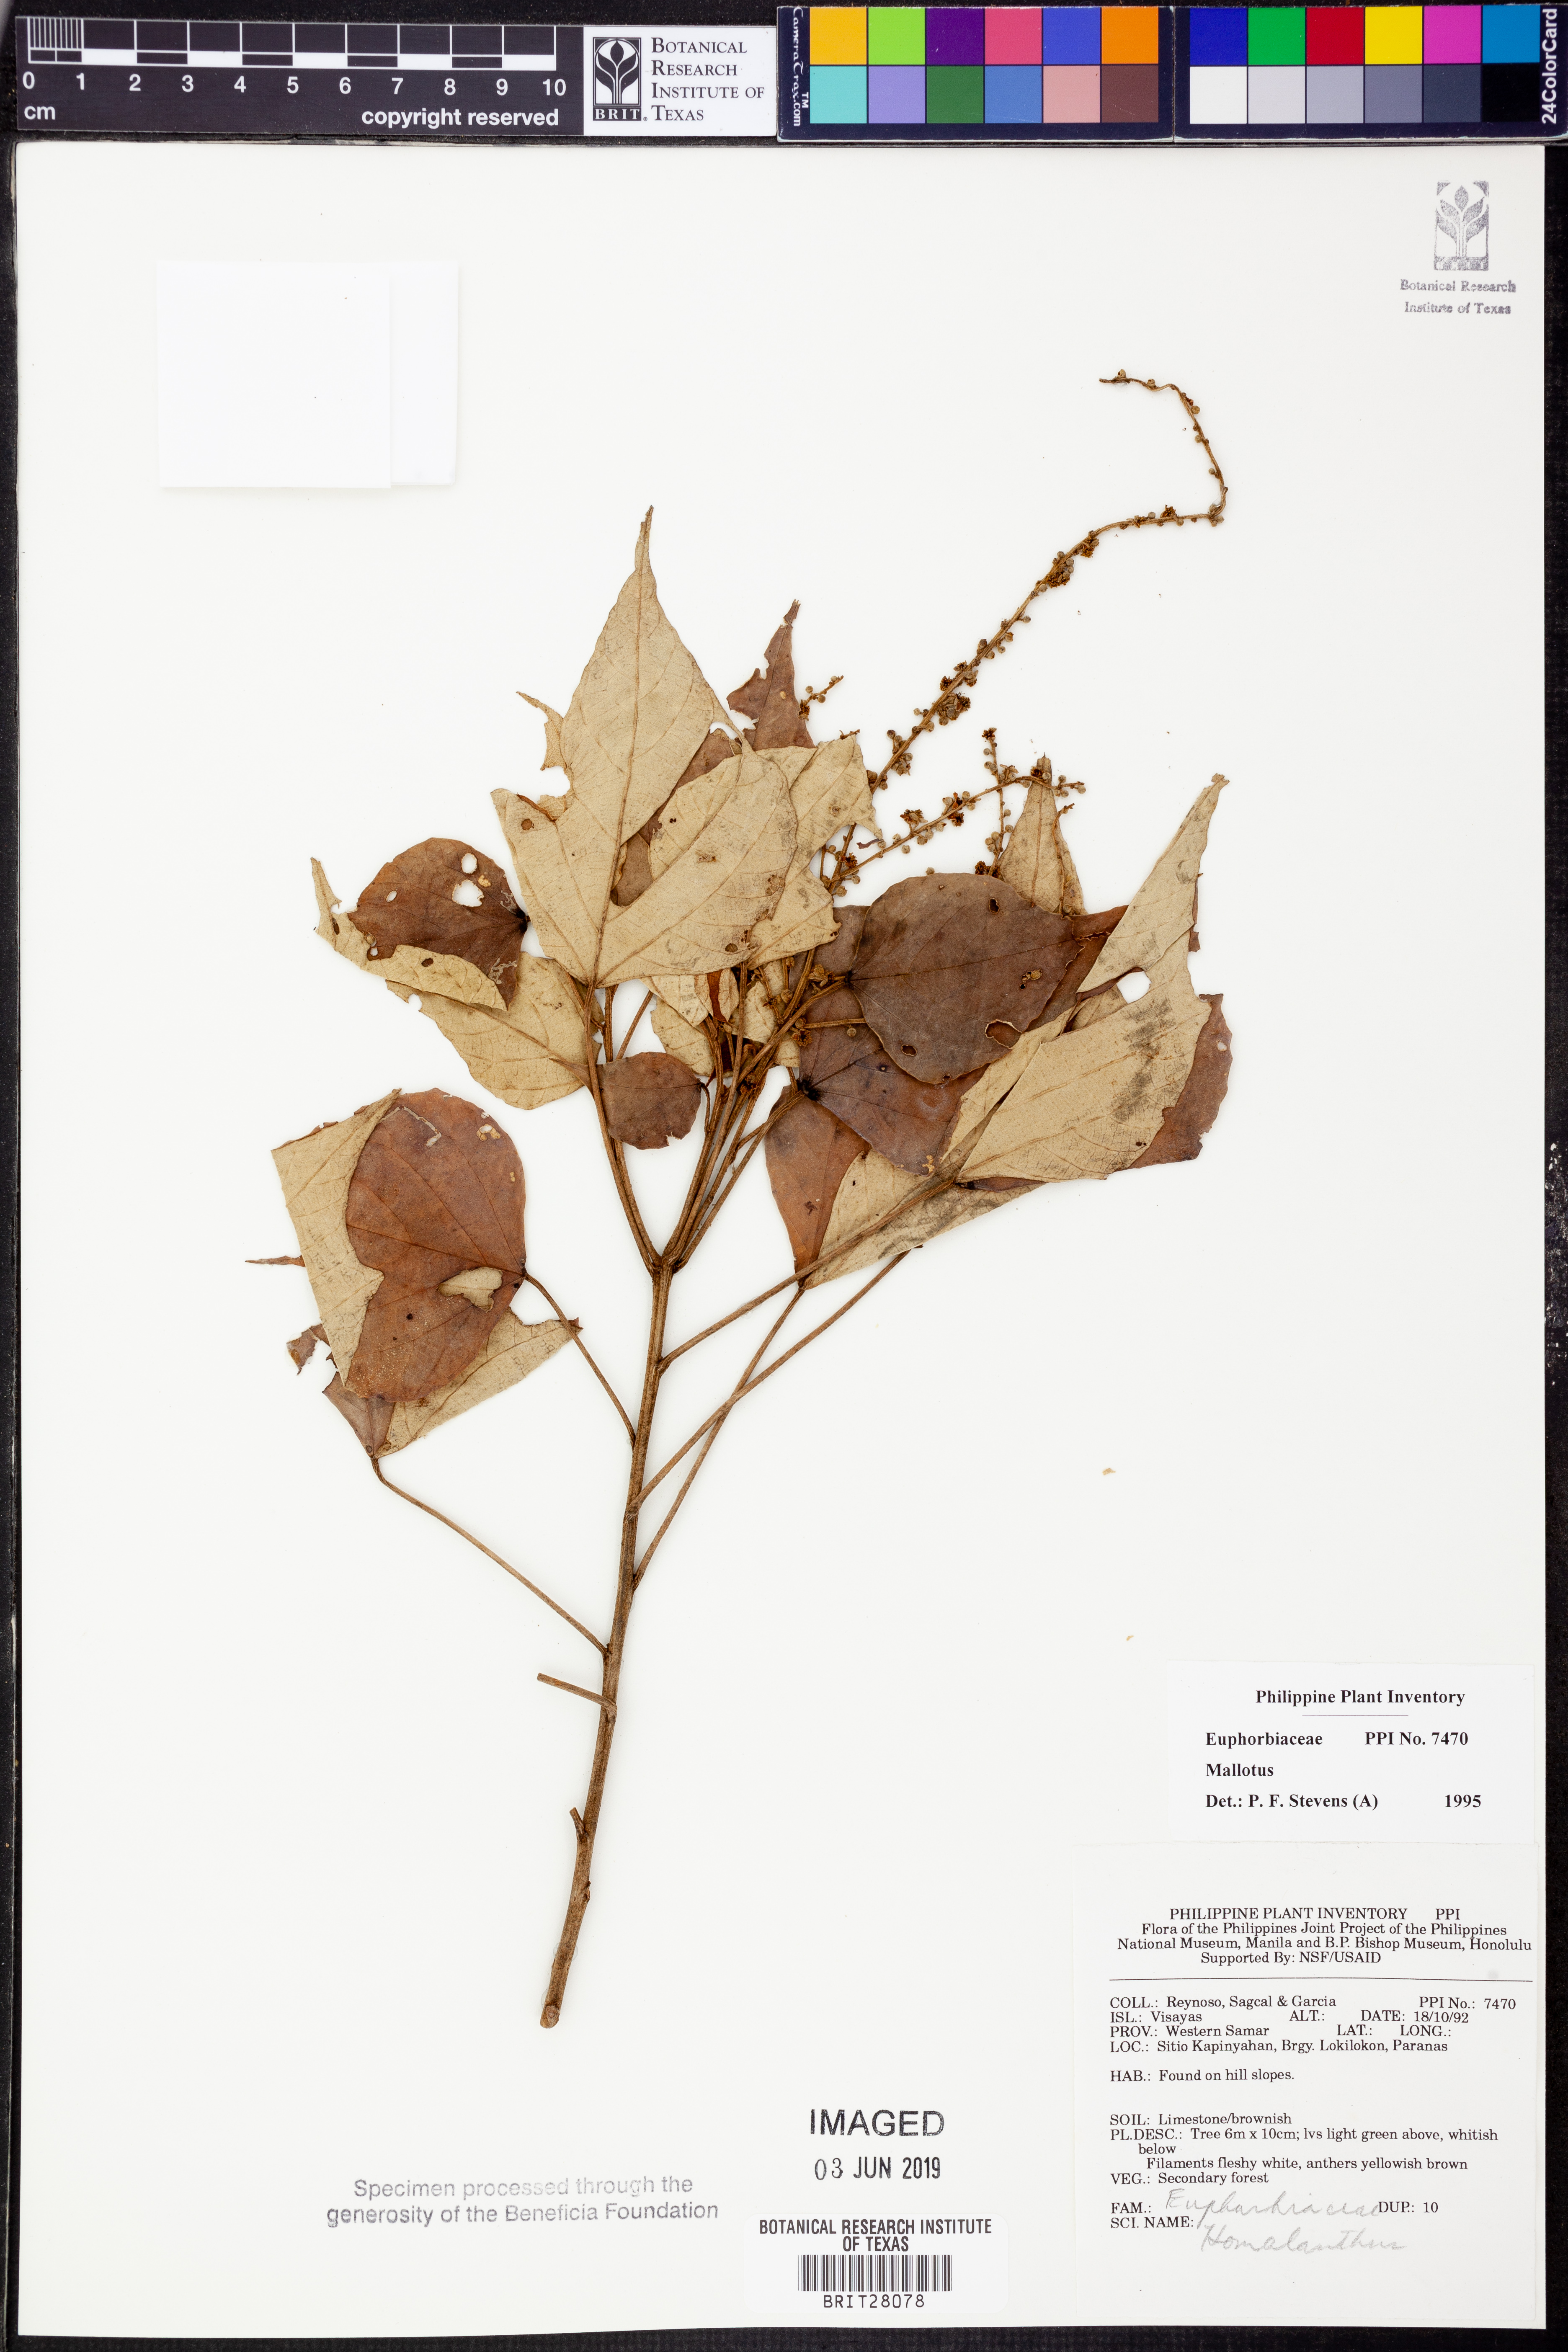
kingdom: Plantae
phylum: Tracheophyta
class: Magnoliopsida
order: Malpighiales
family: Euphorbiaceae
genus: Mallotus
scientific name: Mallotus
